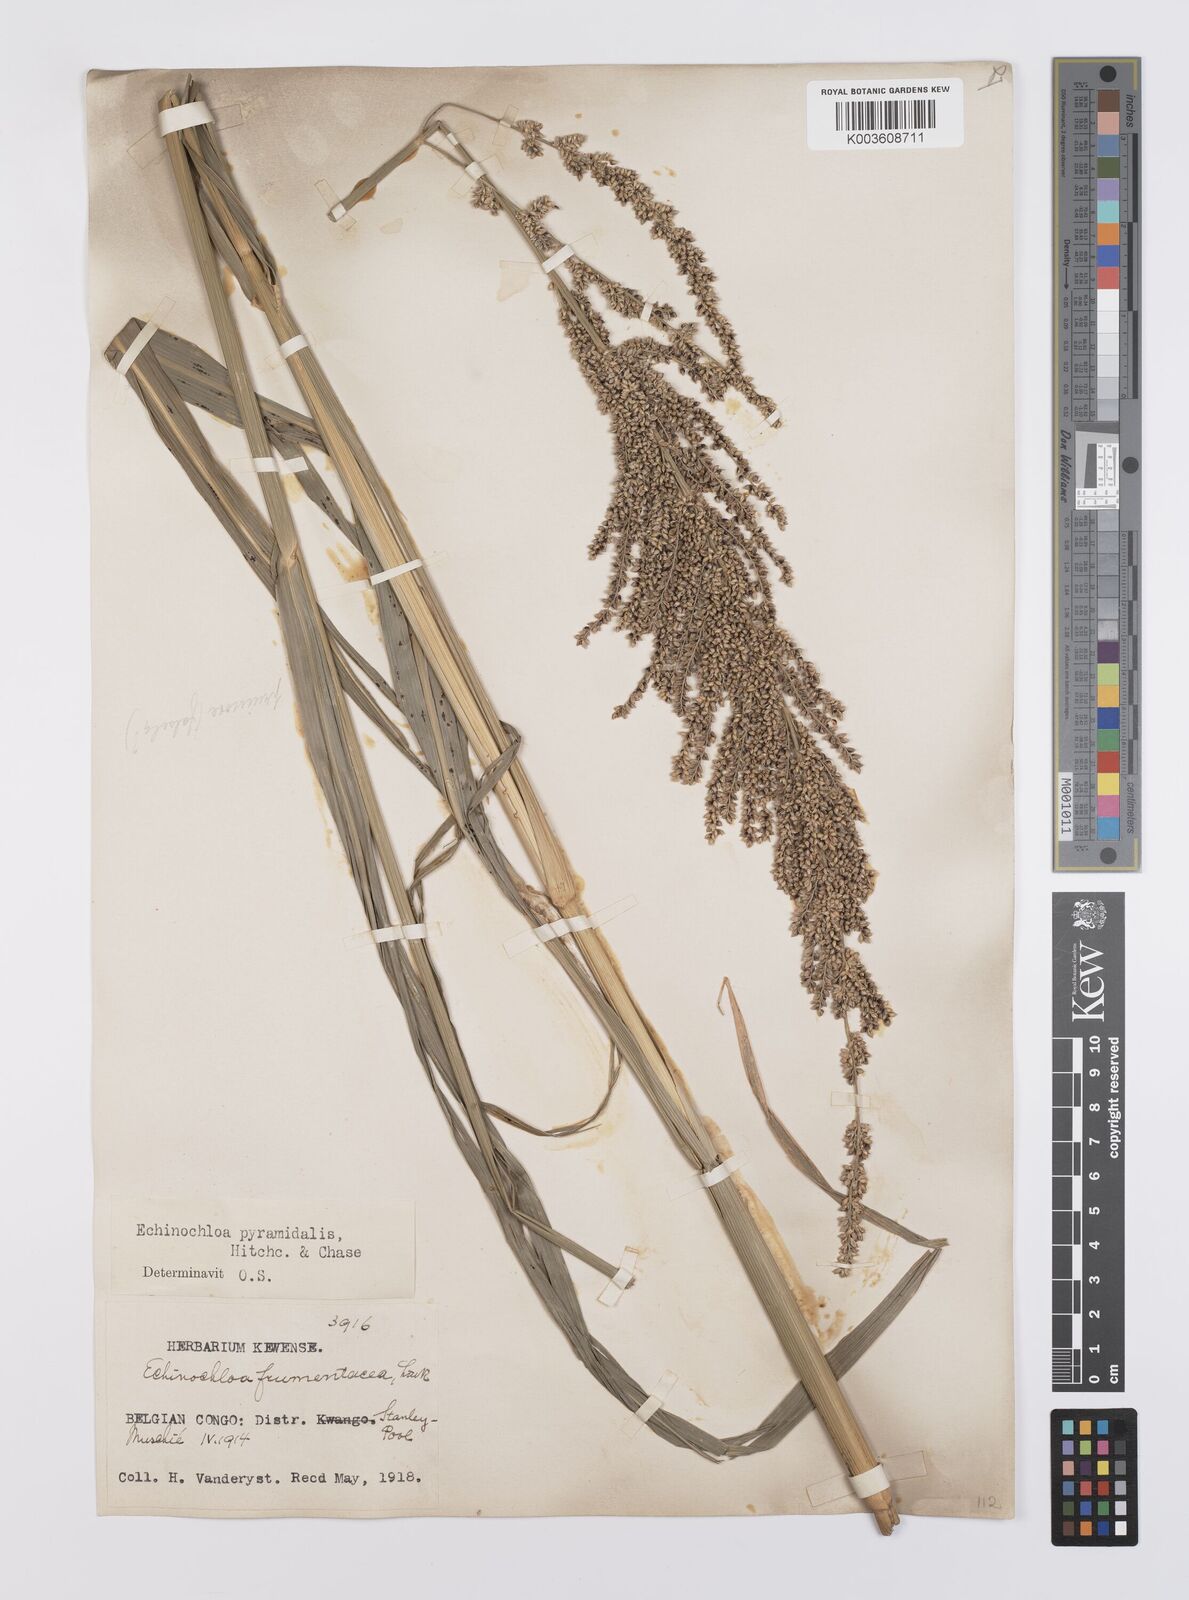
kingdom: Plantae
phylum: Tracheophyta
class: Liliopsida
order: Poales
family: Poaceae
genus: Echinochloa
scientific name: Echinochloa pyramidalis
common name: Antelope grass
